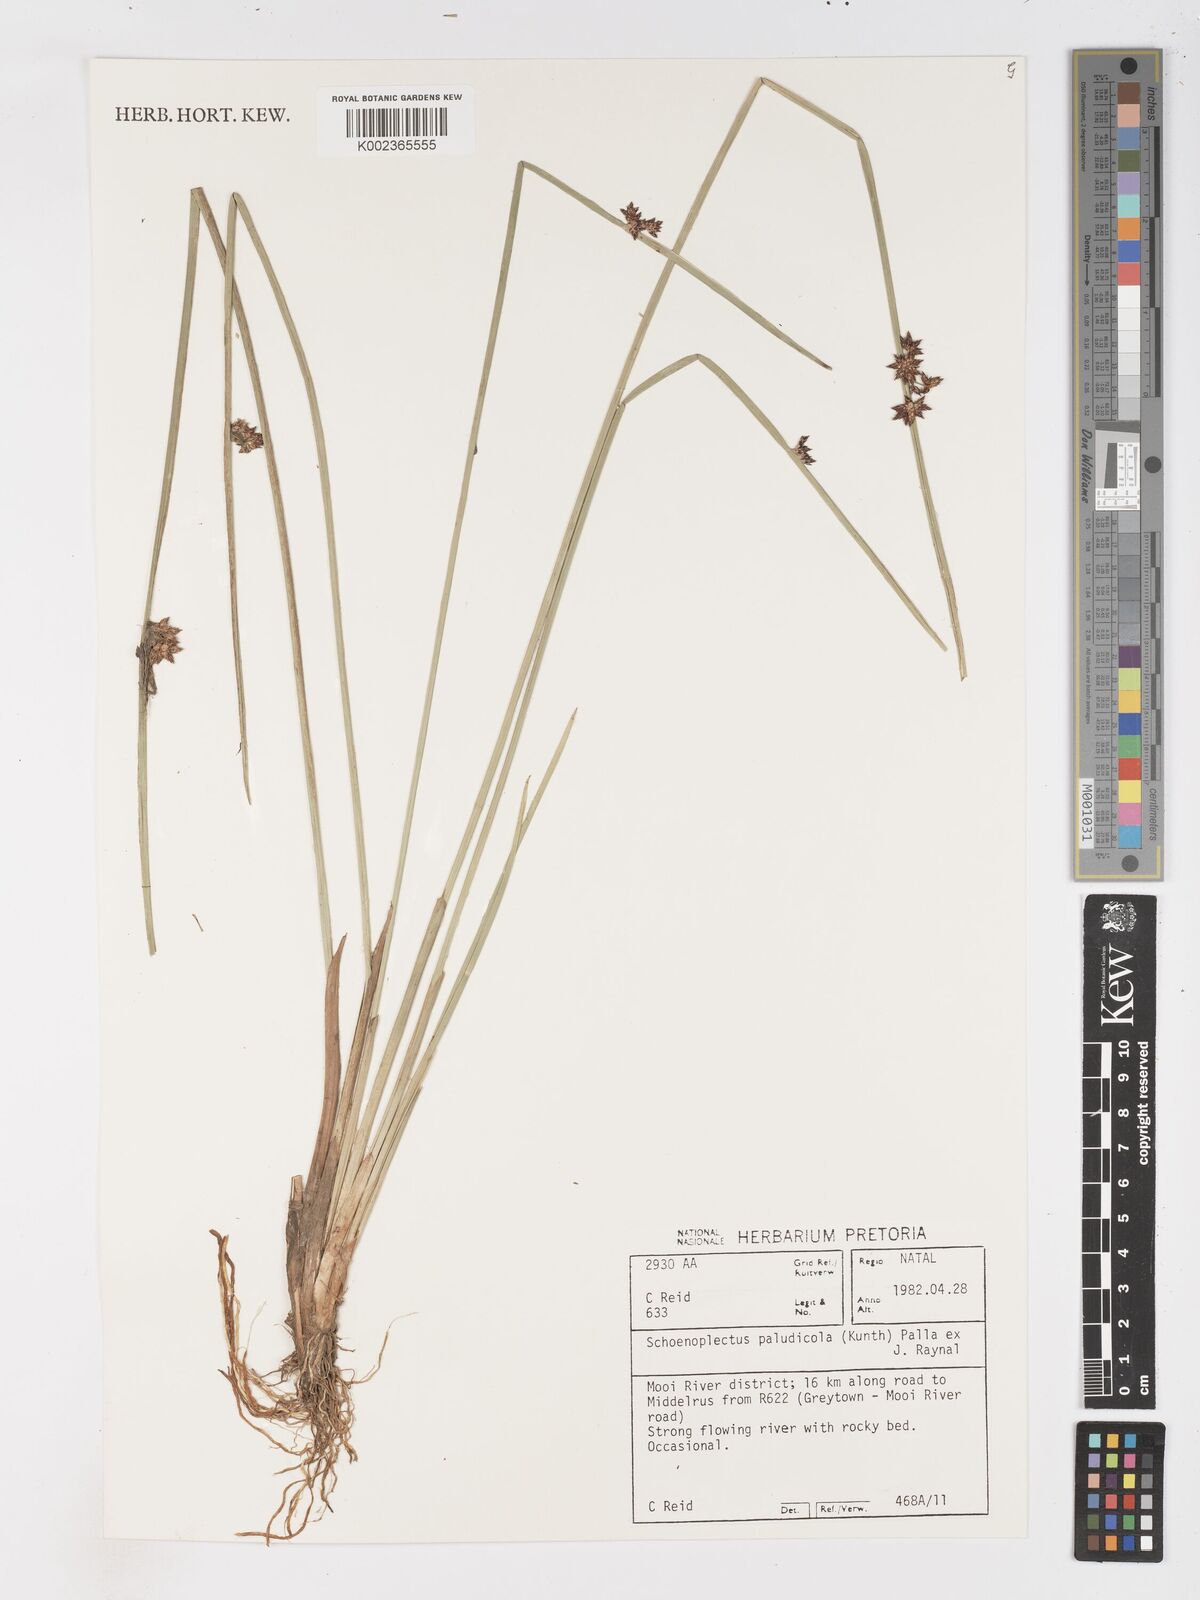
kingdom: Plantae
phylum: Tracheophyta
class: Liliopsida
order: Poales
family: Cyperaceae
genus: Schoenoplectiella
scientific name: Schoenoplectiella paludicola
